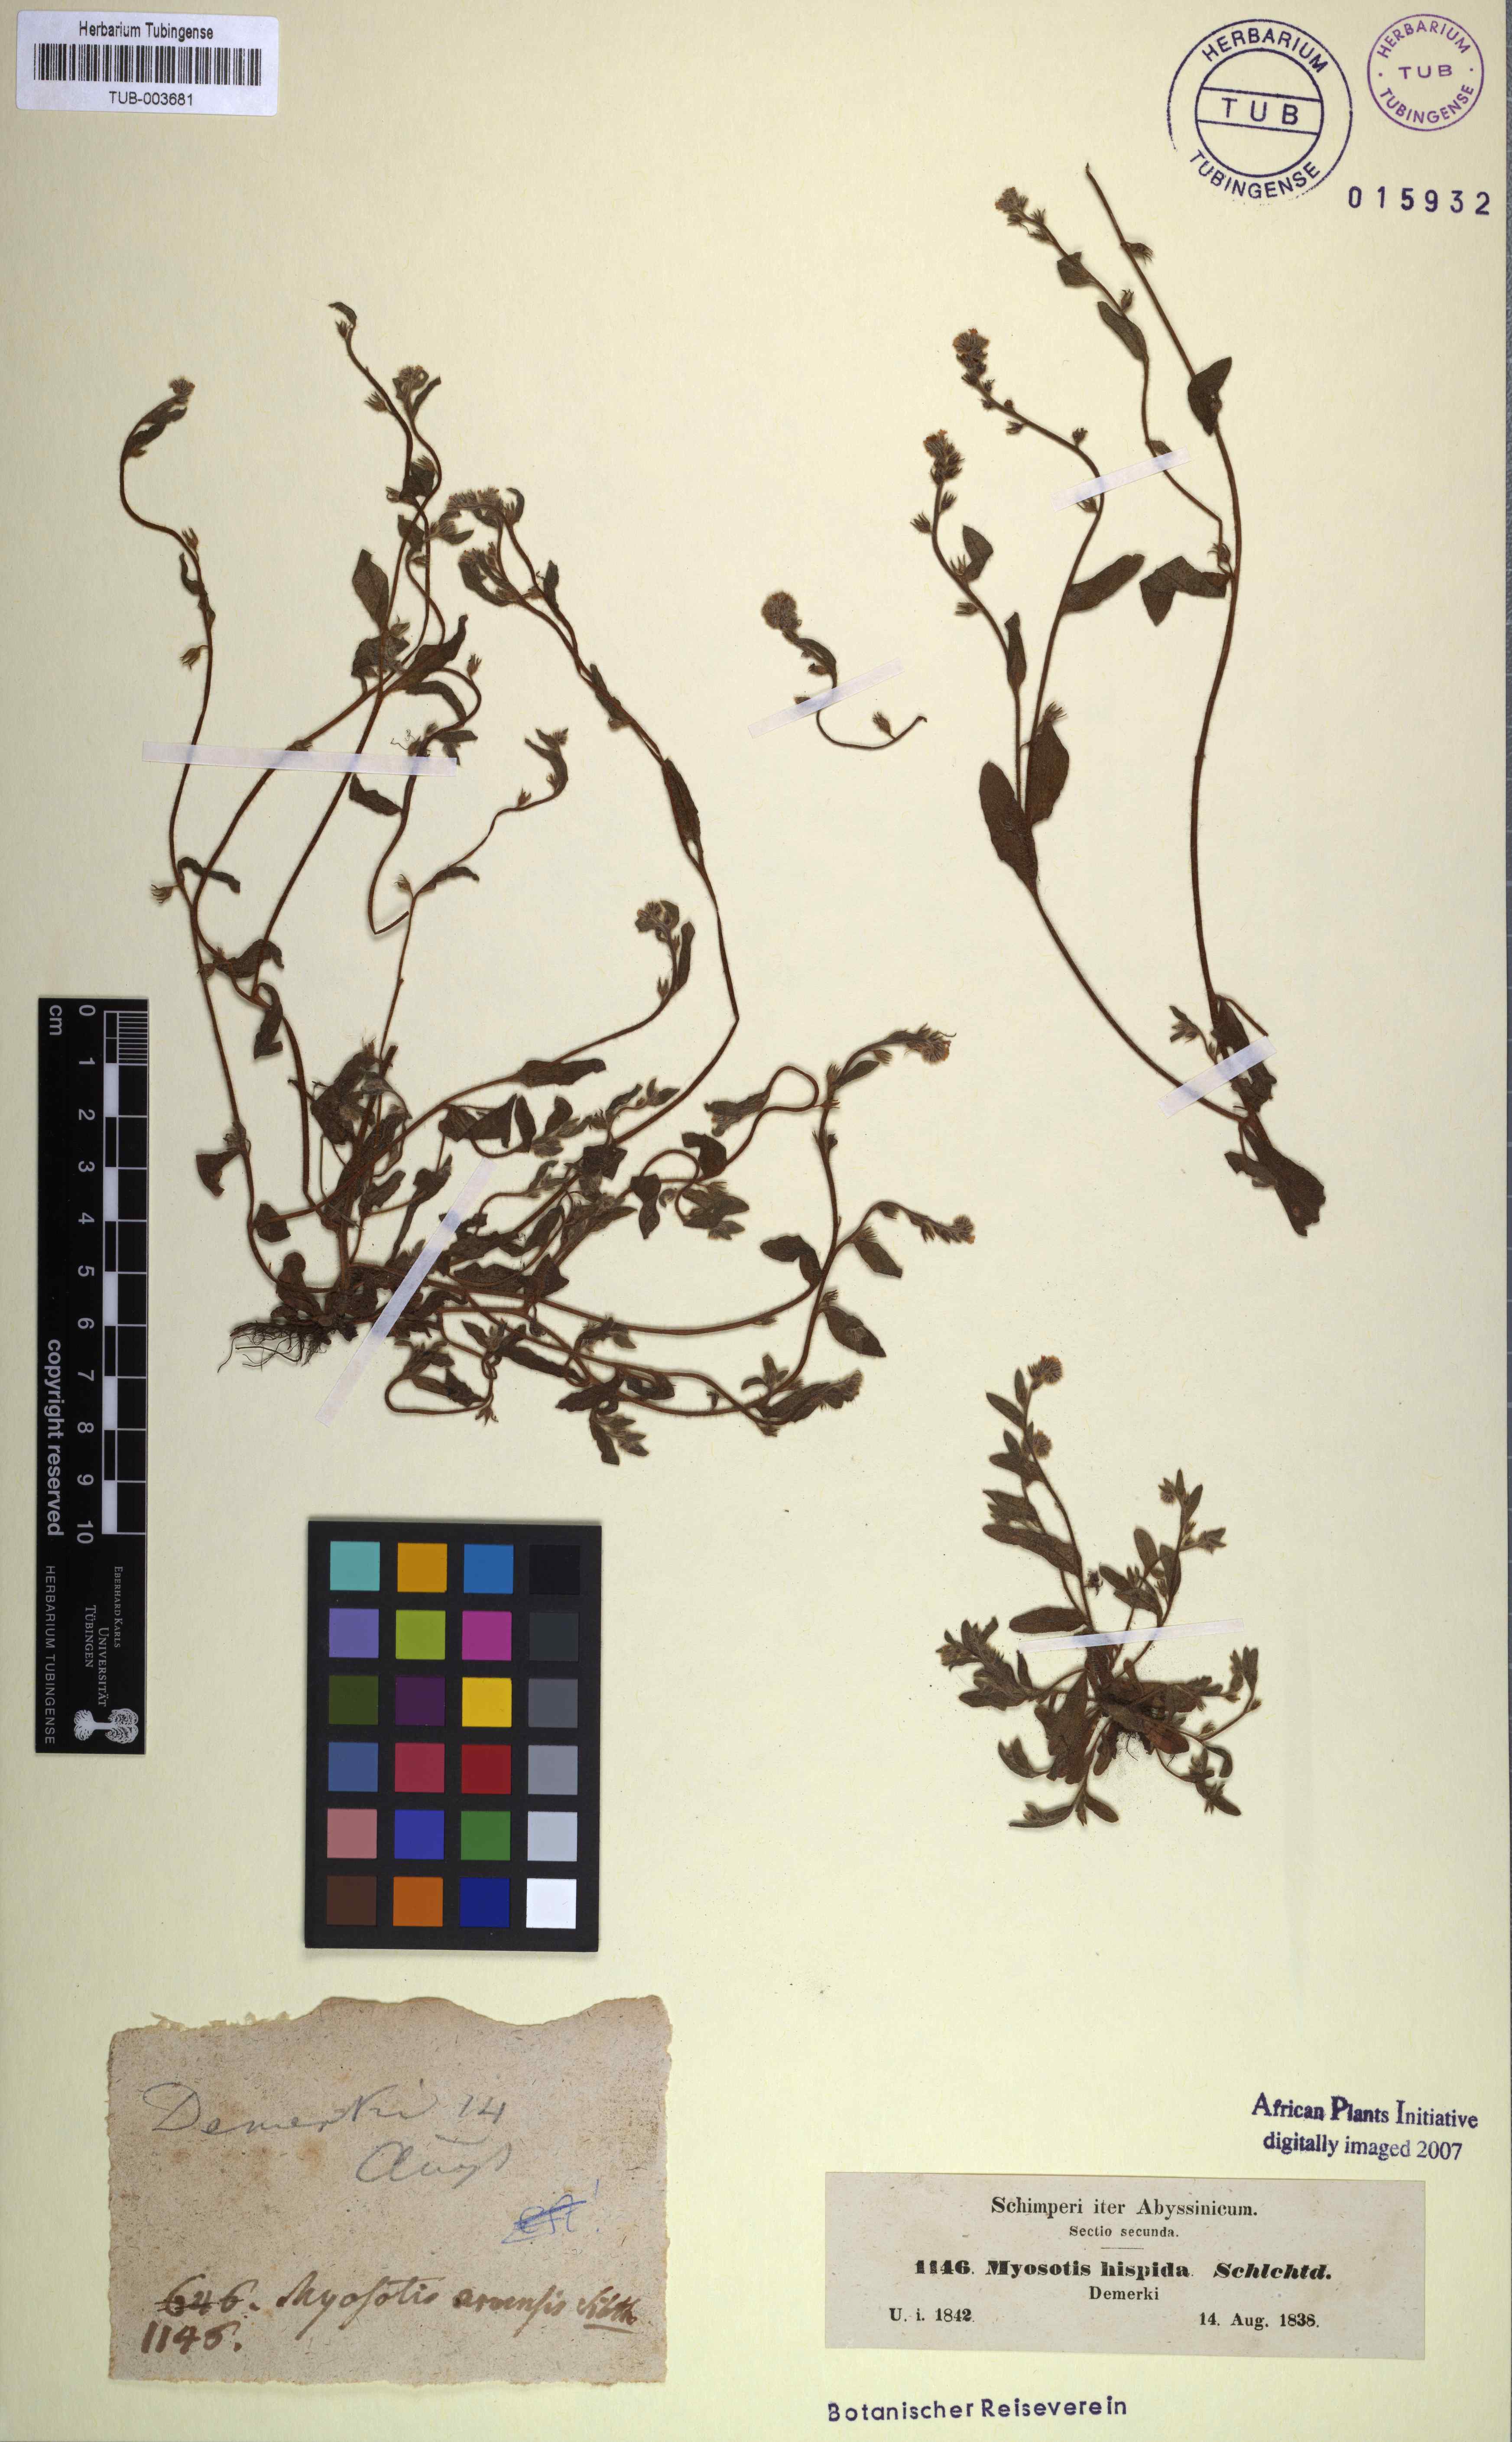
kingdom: Plantae
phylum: Tracheophyta
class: Magnoliopsida
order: Boraginales
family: Boraginaceae
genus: Myosotis
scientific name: Myosotis ramosissima
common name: Early forget-me-not
